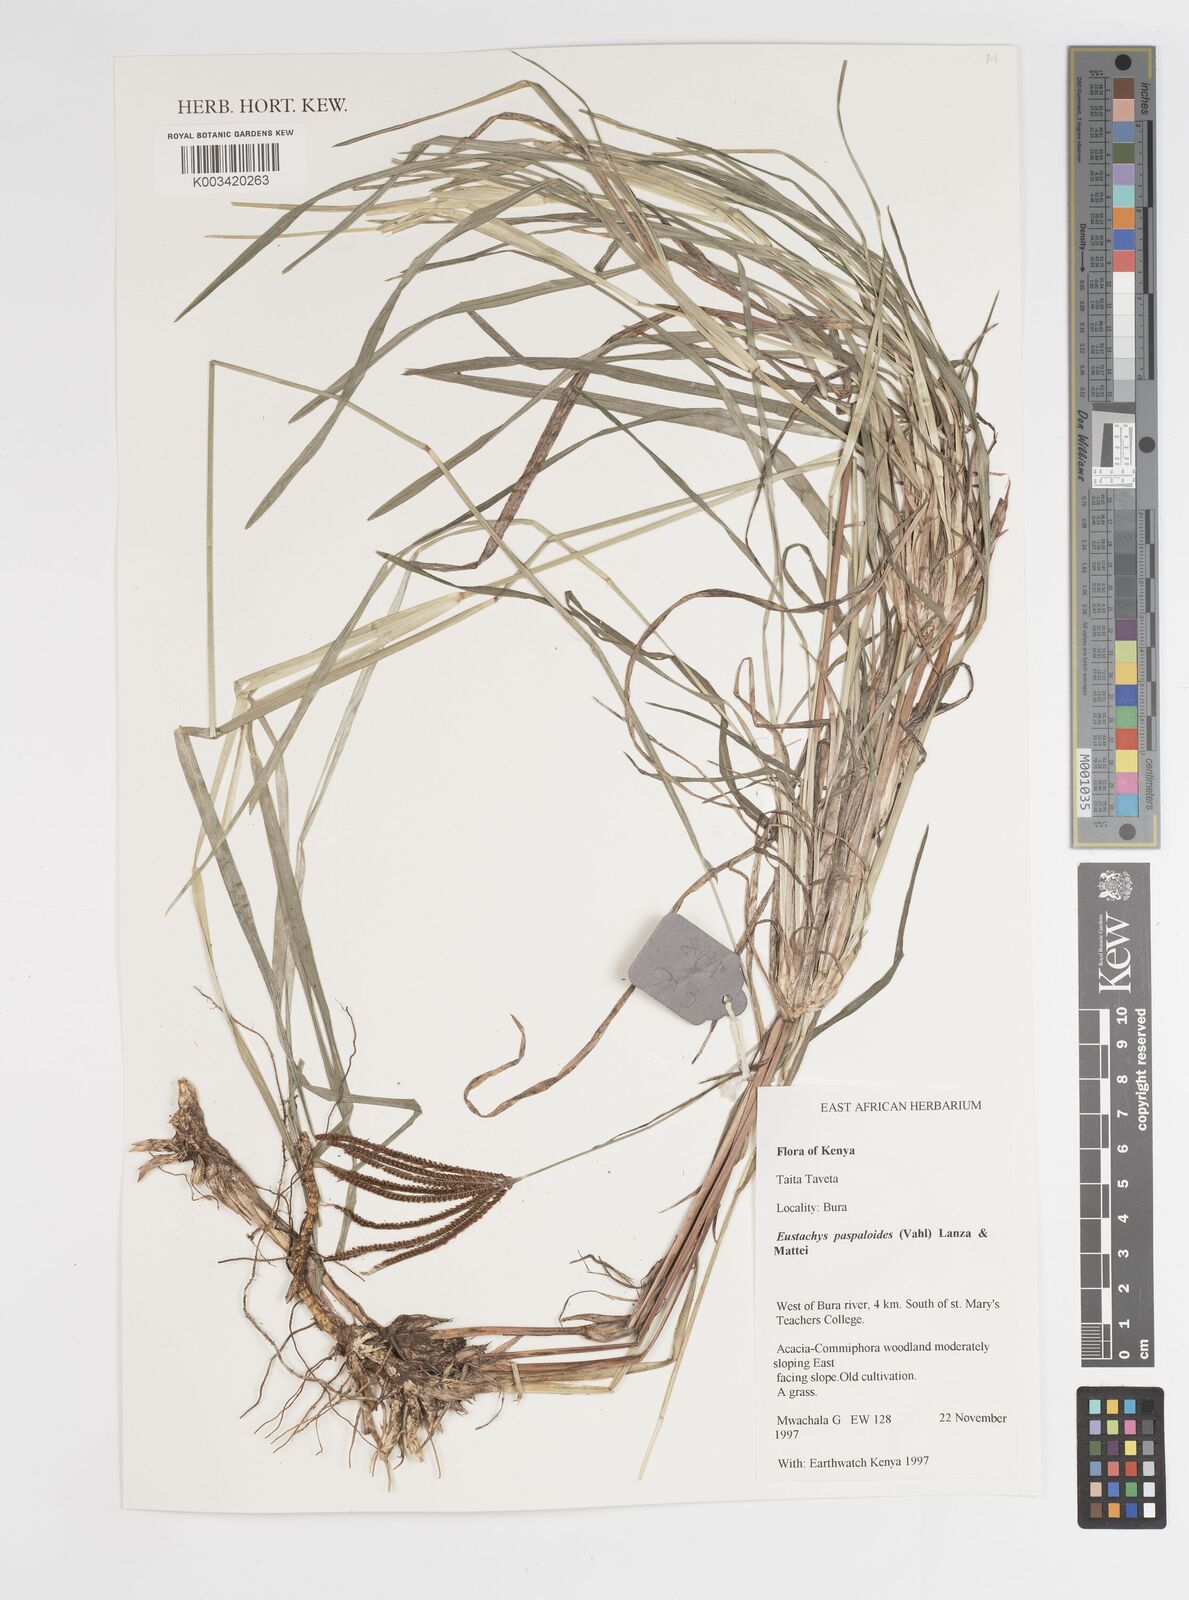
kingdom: Plantae
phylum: Tracheophyta
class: Liliopsida
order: Poales
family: Poaceae
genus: Eustachys
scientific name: Eustachys paspaloides
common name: Caribbean fingergrass
